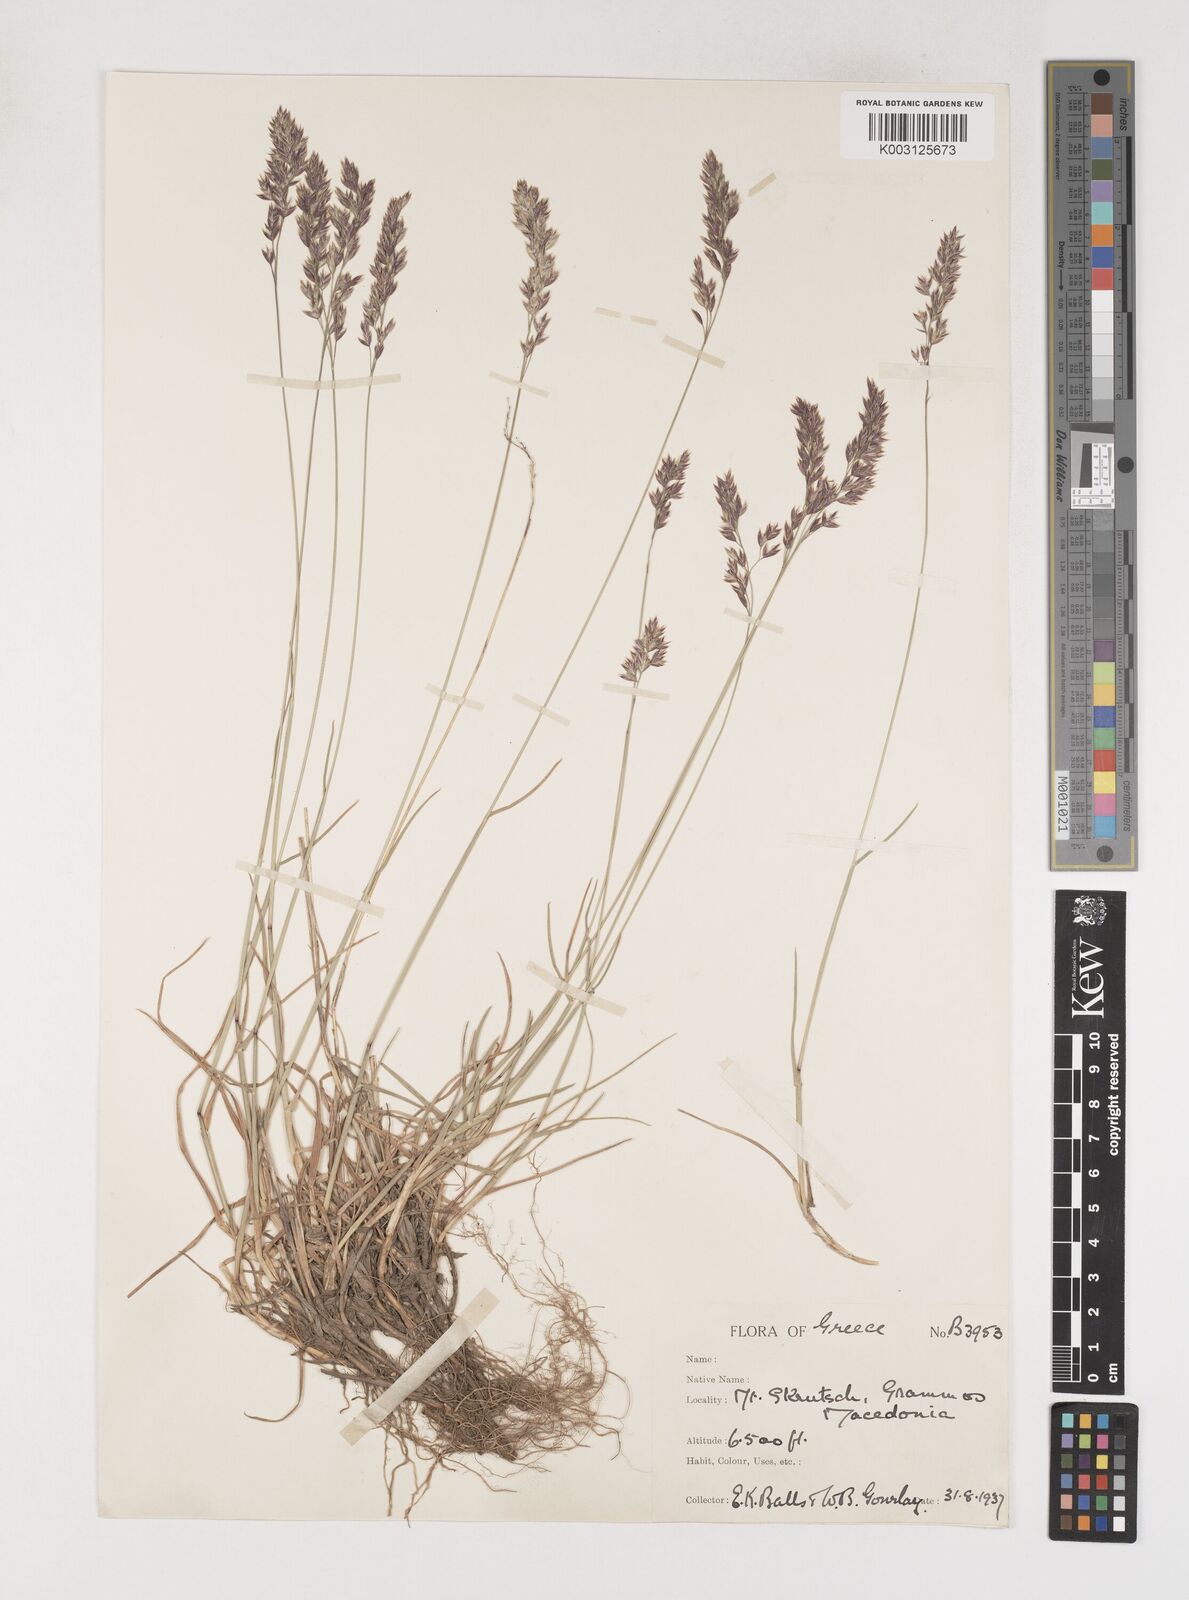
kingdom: Plantae
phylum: Tracheophyta
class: Liliopsida
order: Poales
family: Poaceae
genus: Poa
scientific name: Poa
